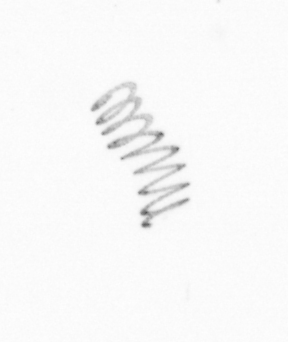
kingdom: Chromista
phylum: Ochrophyta
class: Bacillariophyceae
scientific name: Bacillariophyceae
